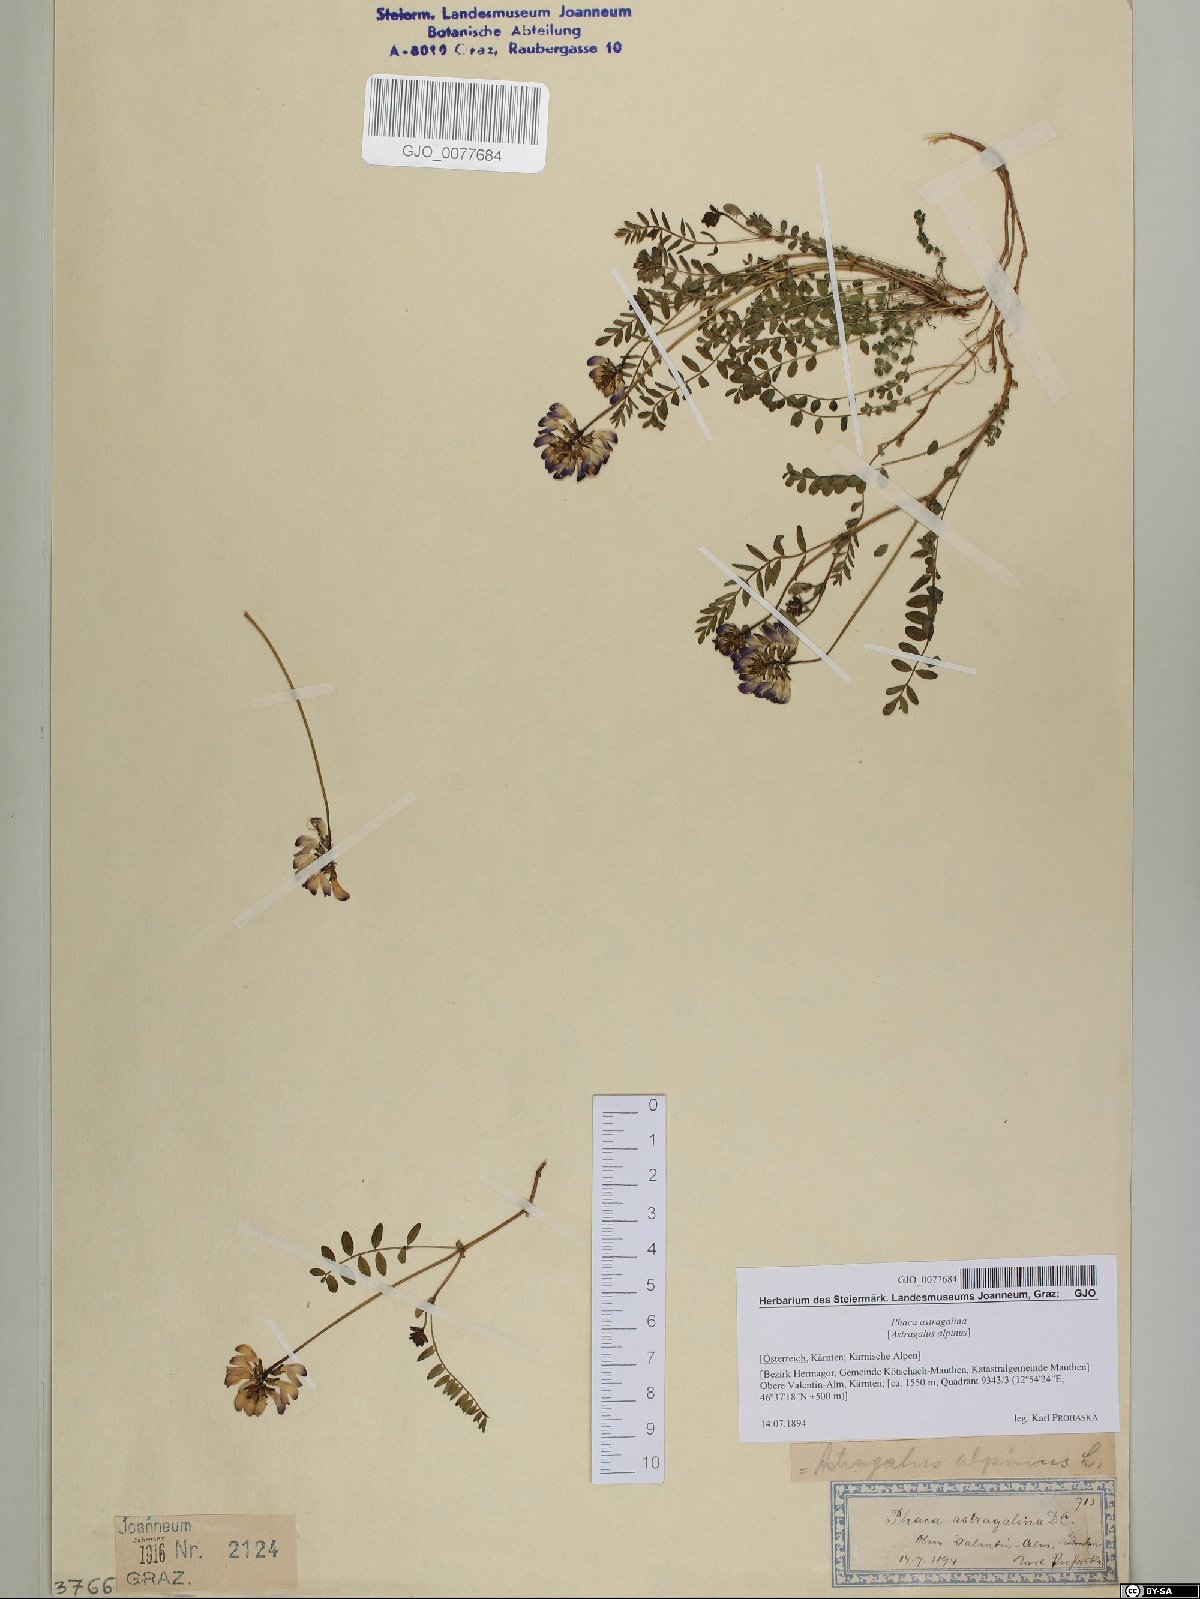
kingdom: Plantae
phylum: Tracheophyta
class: Magnoliopsida
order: Fabales
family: Fabaceae
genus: Astragalus
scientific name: Astragalus alpinus
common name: Alpine milk-vetch
